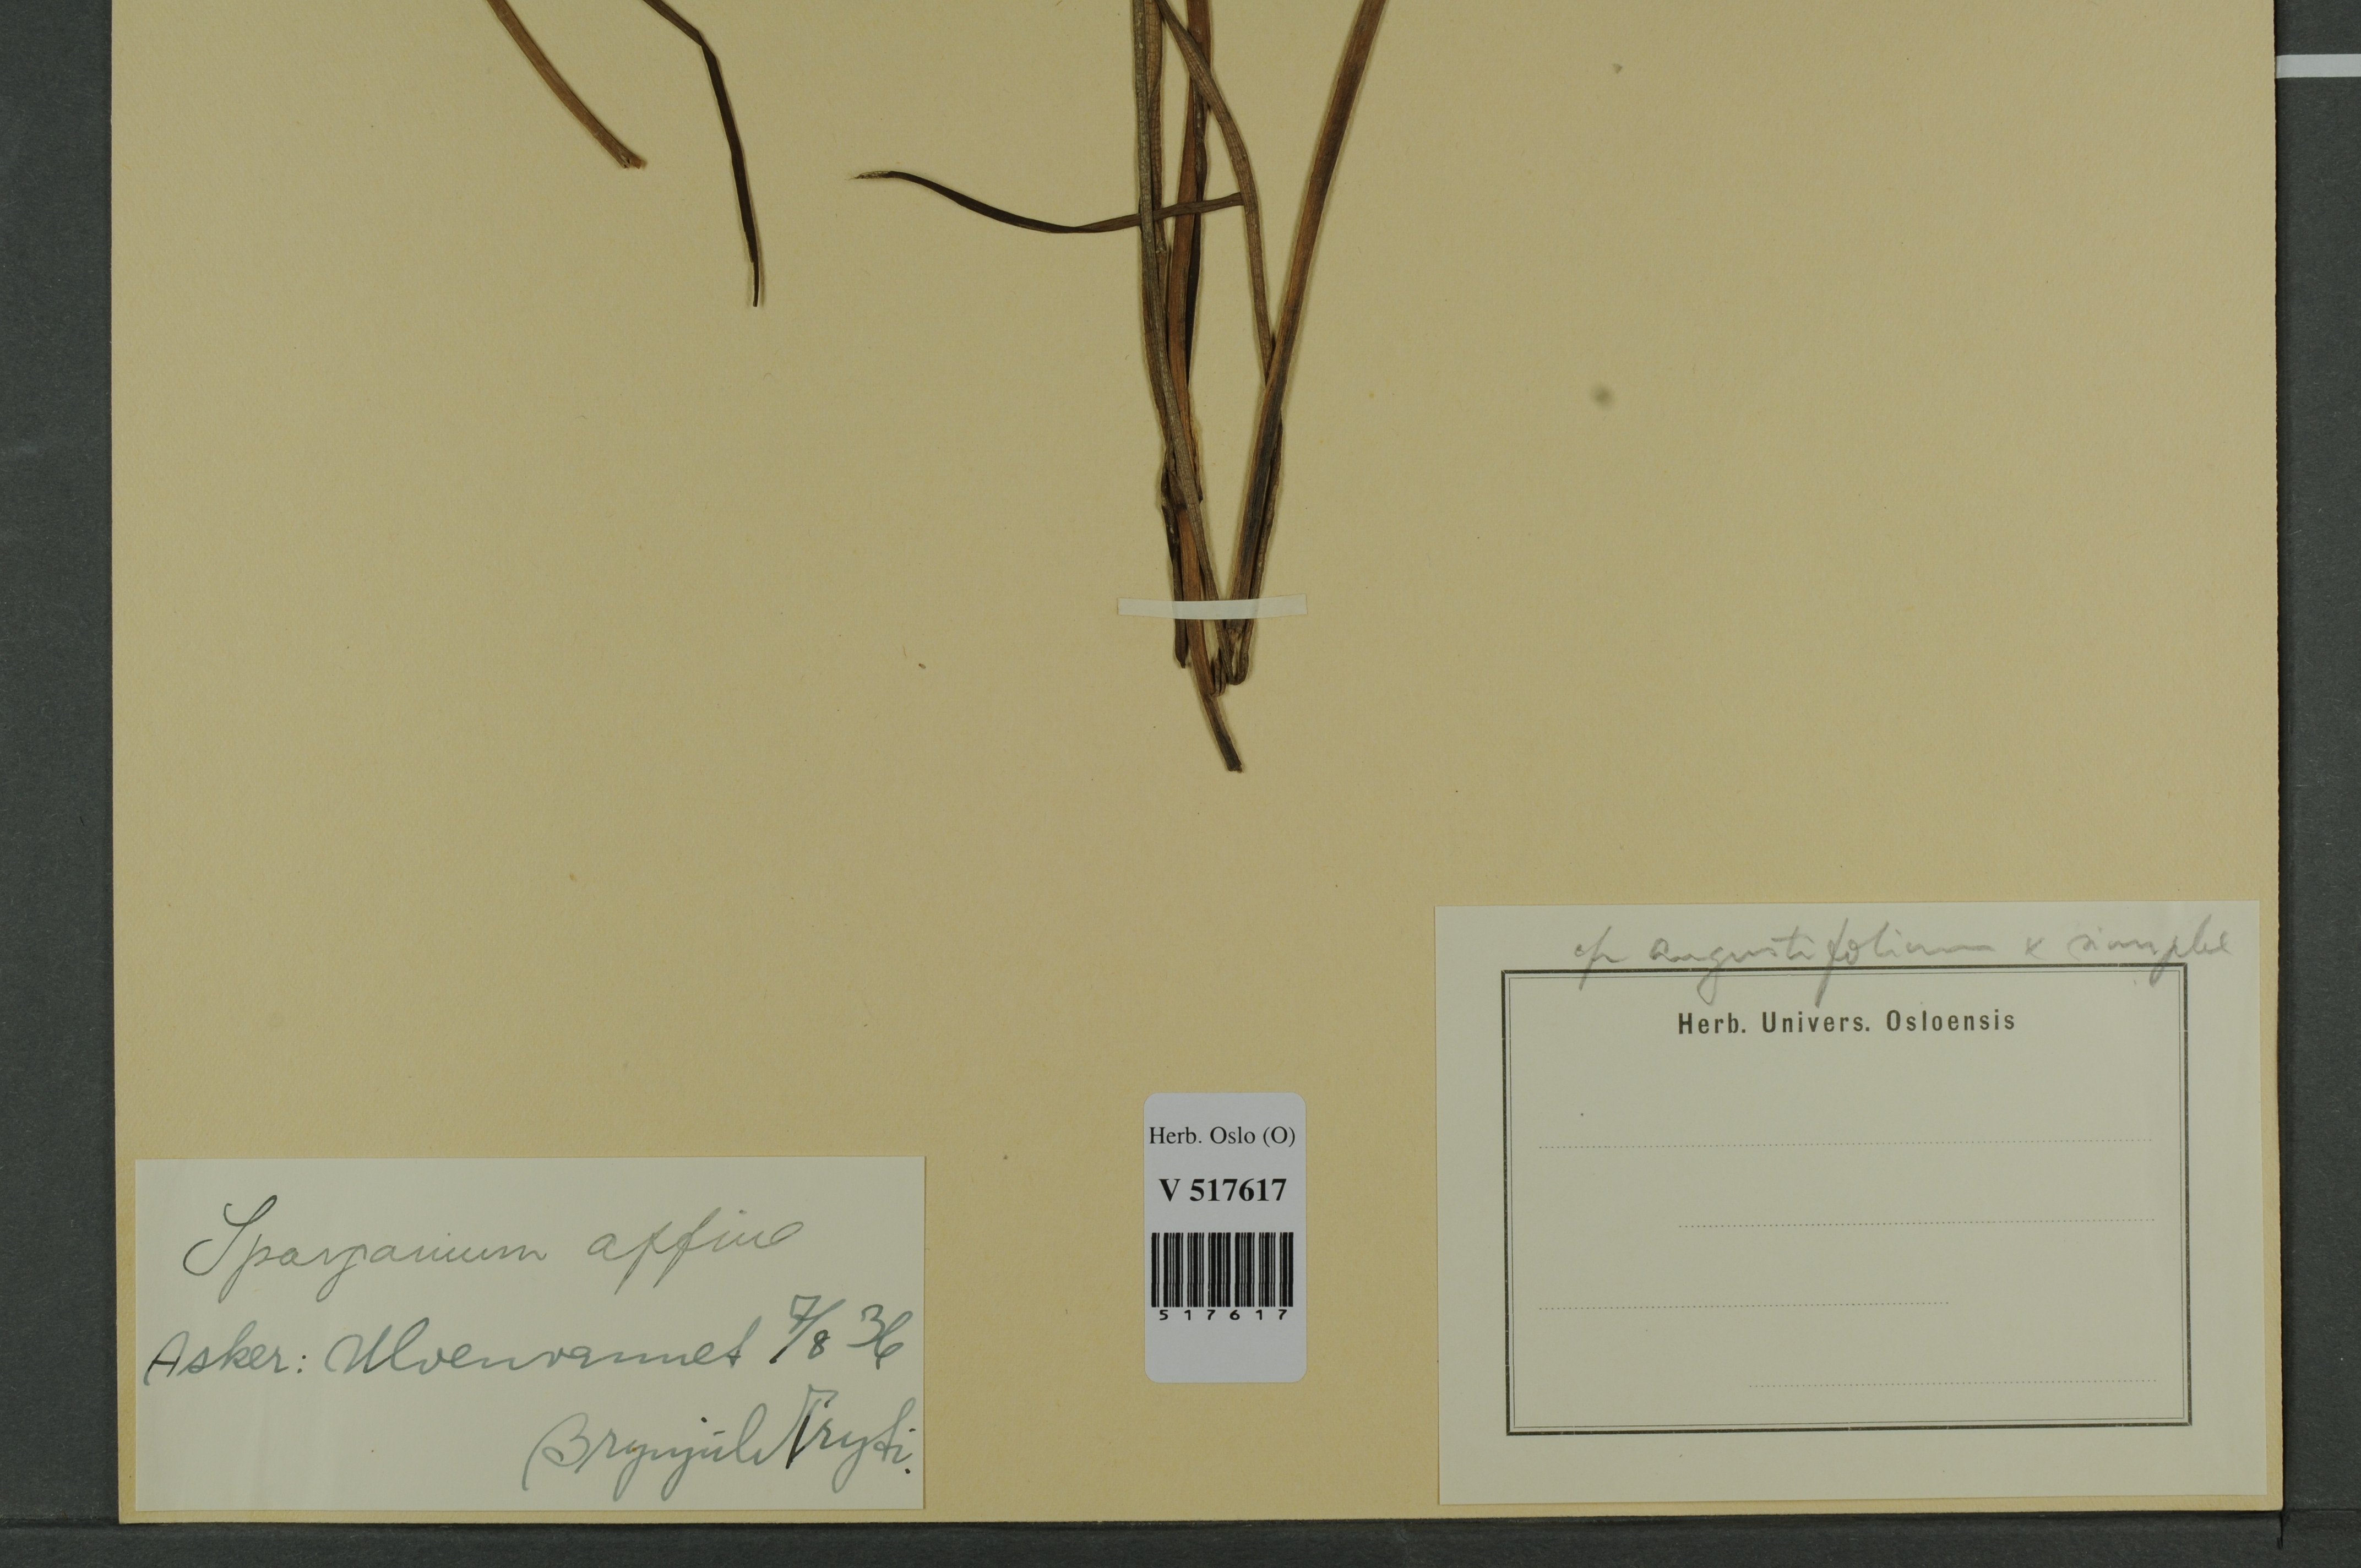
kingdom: Plantae
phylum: Tracheophyta
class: Liliopsida
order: Poales
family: Typhaceae
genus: Sparganium
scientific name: Sparganium
